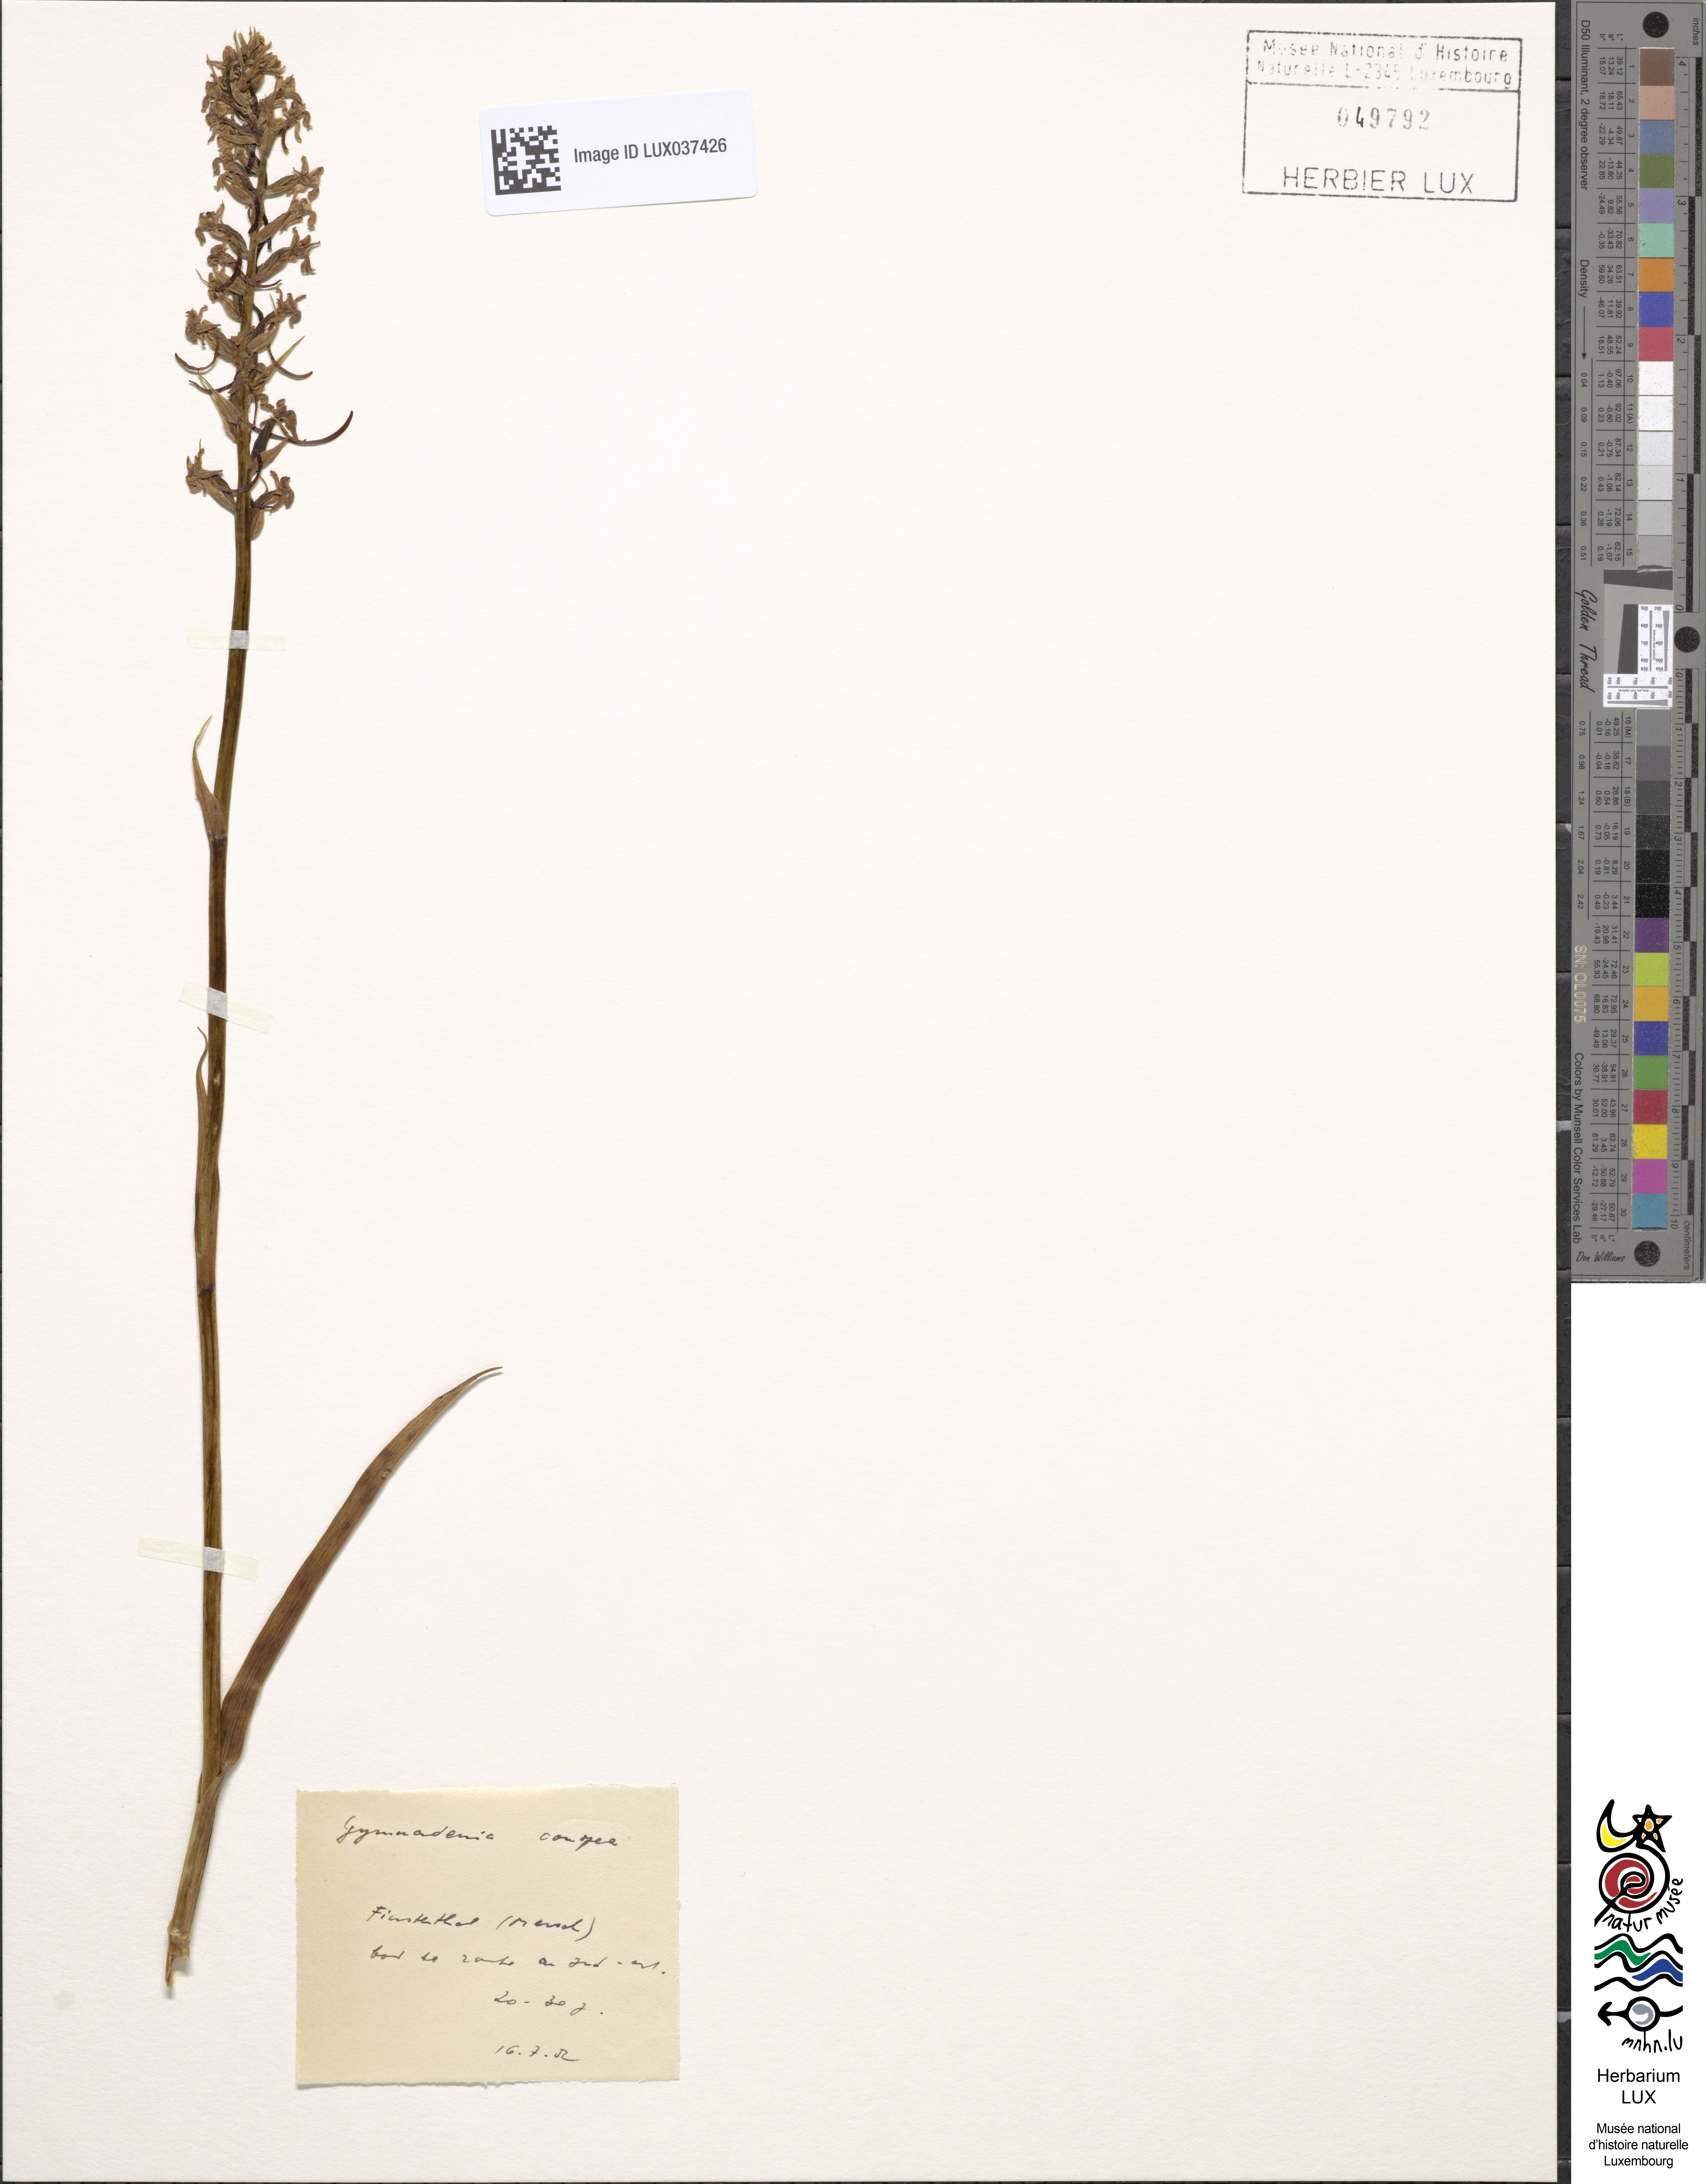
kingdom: Plantae
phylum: Tracheophyta
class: Liliopsida
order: Asparagales
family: Orchidaceae
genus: Gymnadenia
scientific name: Gymnadenia conopsea
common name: Fragrant orchid
